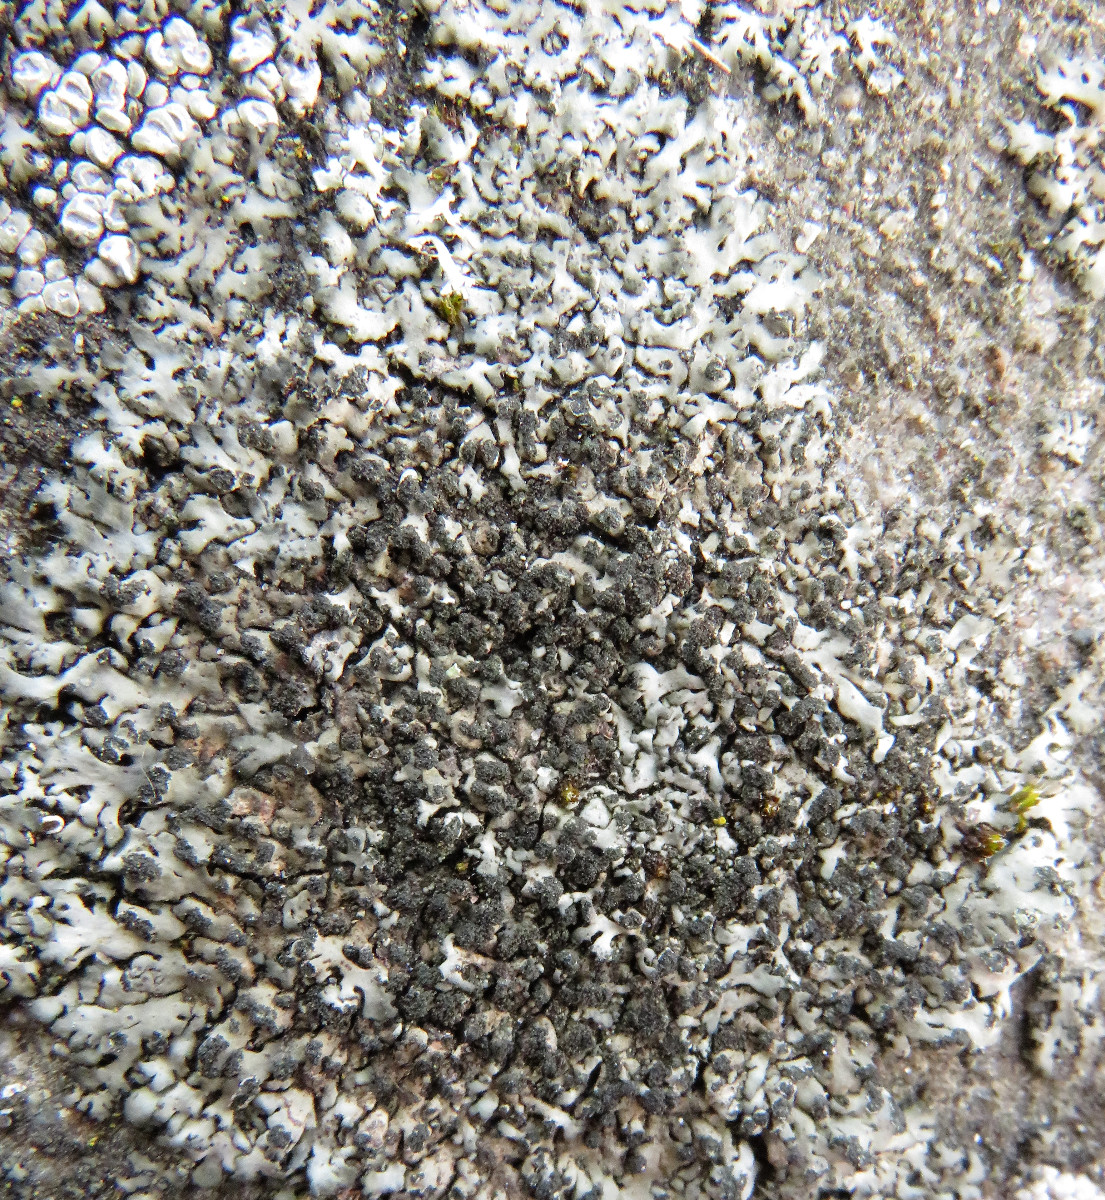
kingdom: Fungi
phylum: Ascomycota
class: Lecanoromycetes
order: Caliciales
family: Physciaceae
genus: Phaeophyscia
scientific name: Phaeophyscia orbicularis
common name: grågrøn rosetlav
